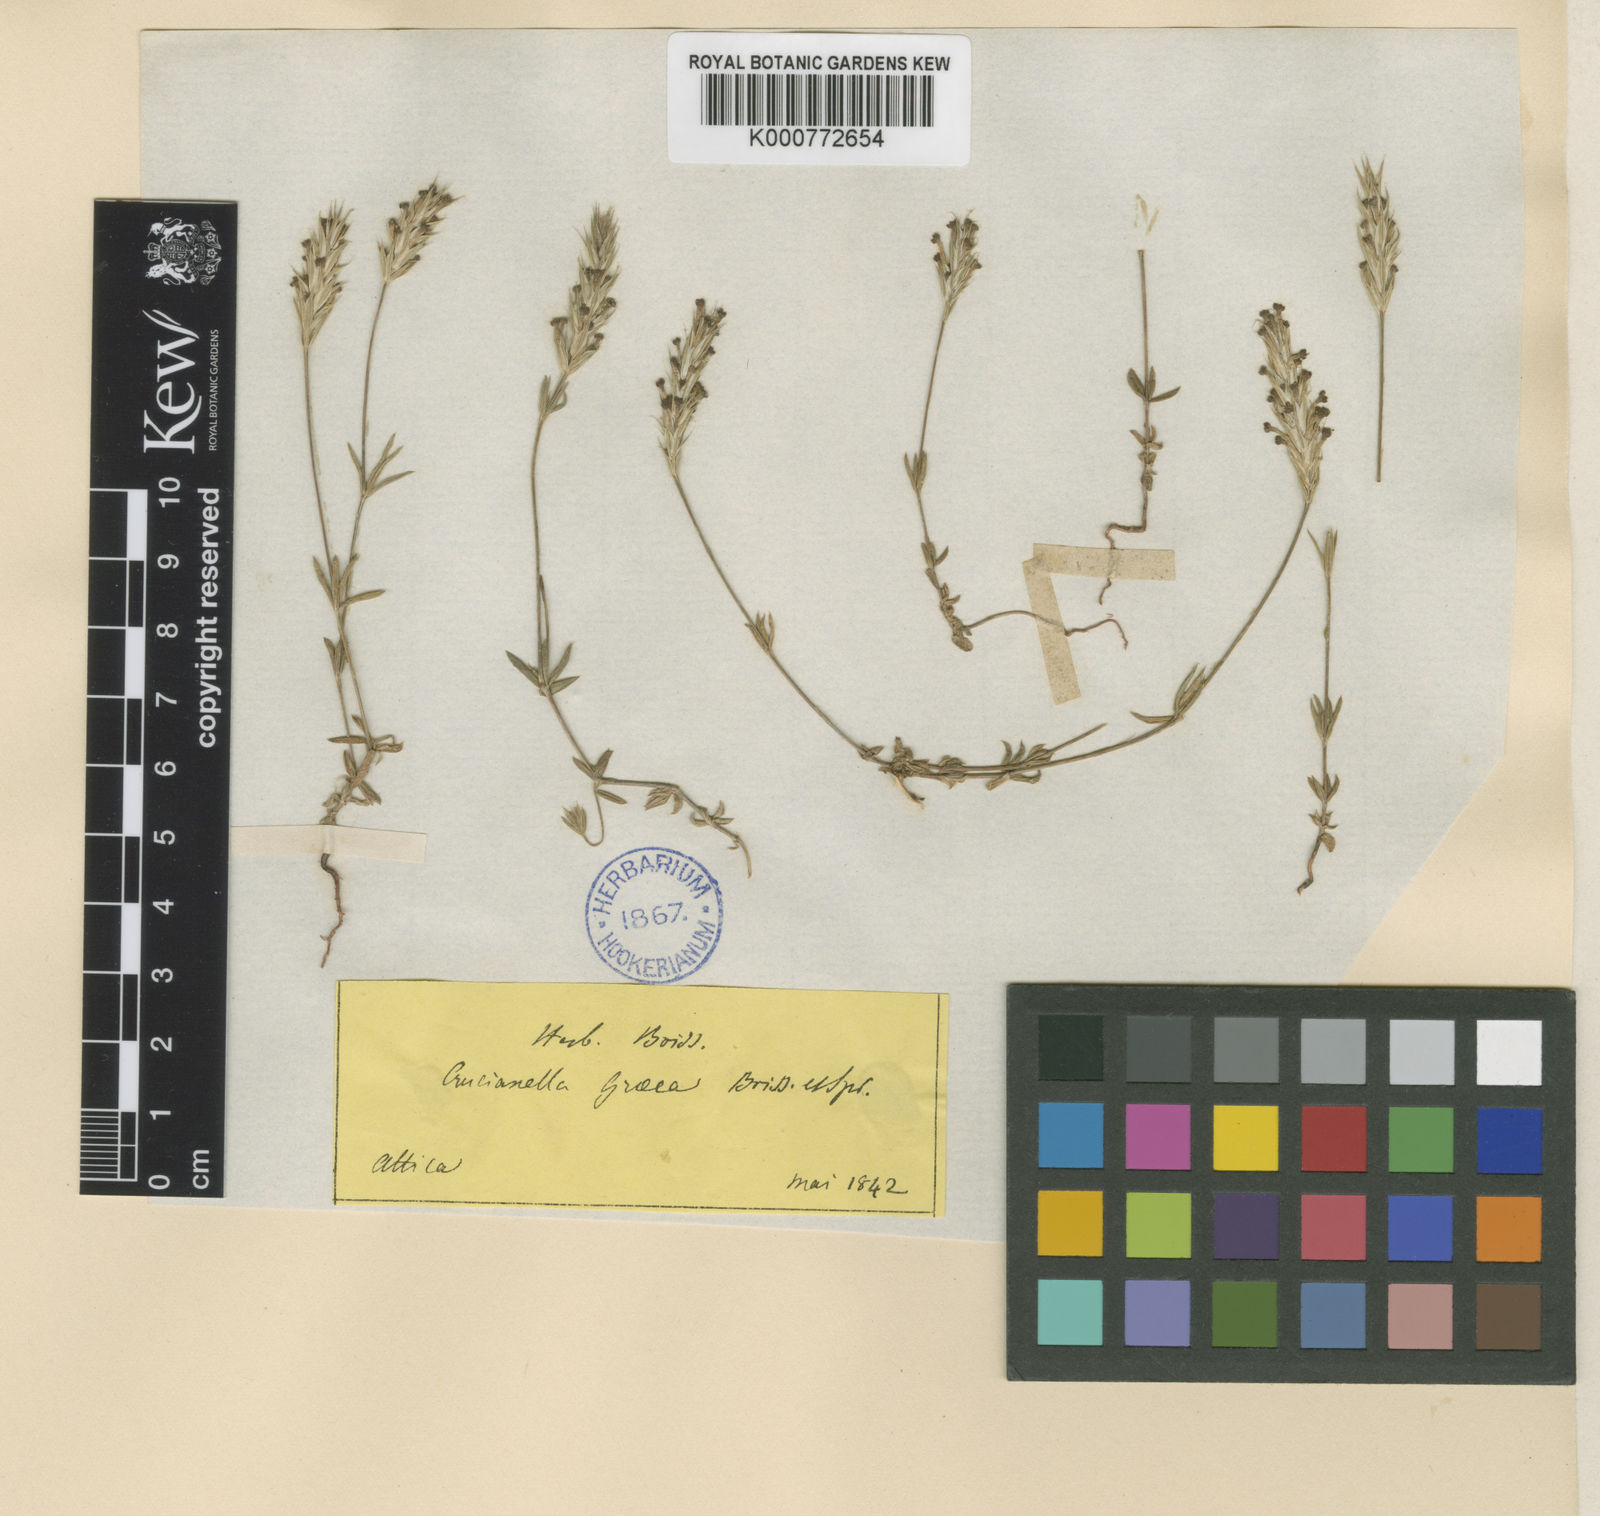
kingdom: Plantae
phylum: Tracheophyta
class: Magnoliopsida
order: Gentianales
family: Rubiaceae
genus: Crucianella
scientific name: Crucianella graeca
